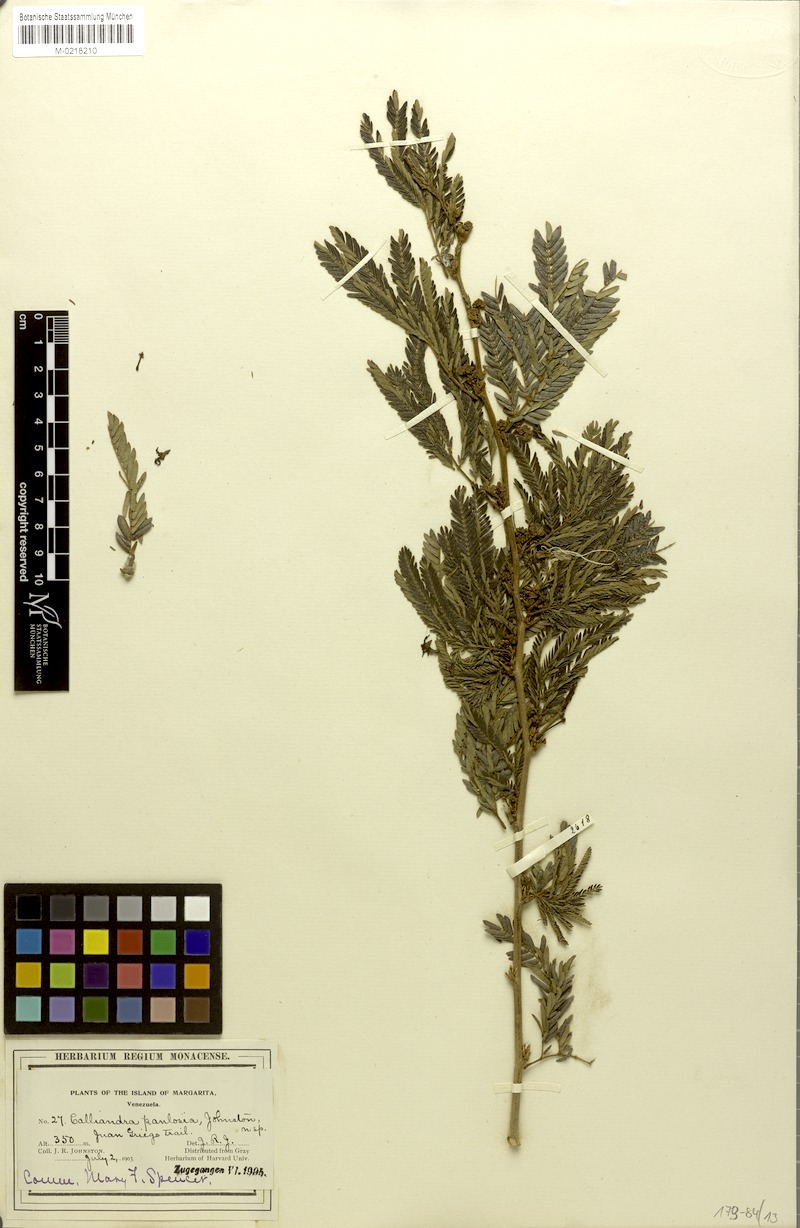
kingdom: Plantae
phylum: Tracheophyta
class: Magnoliopsida
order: Fabales
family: Fabaceae
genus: Calliandra
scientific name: Calliandra laxa
